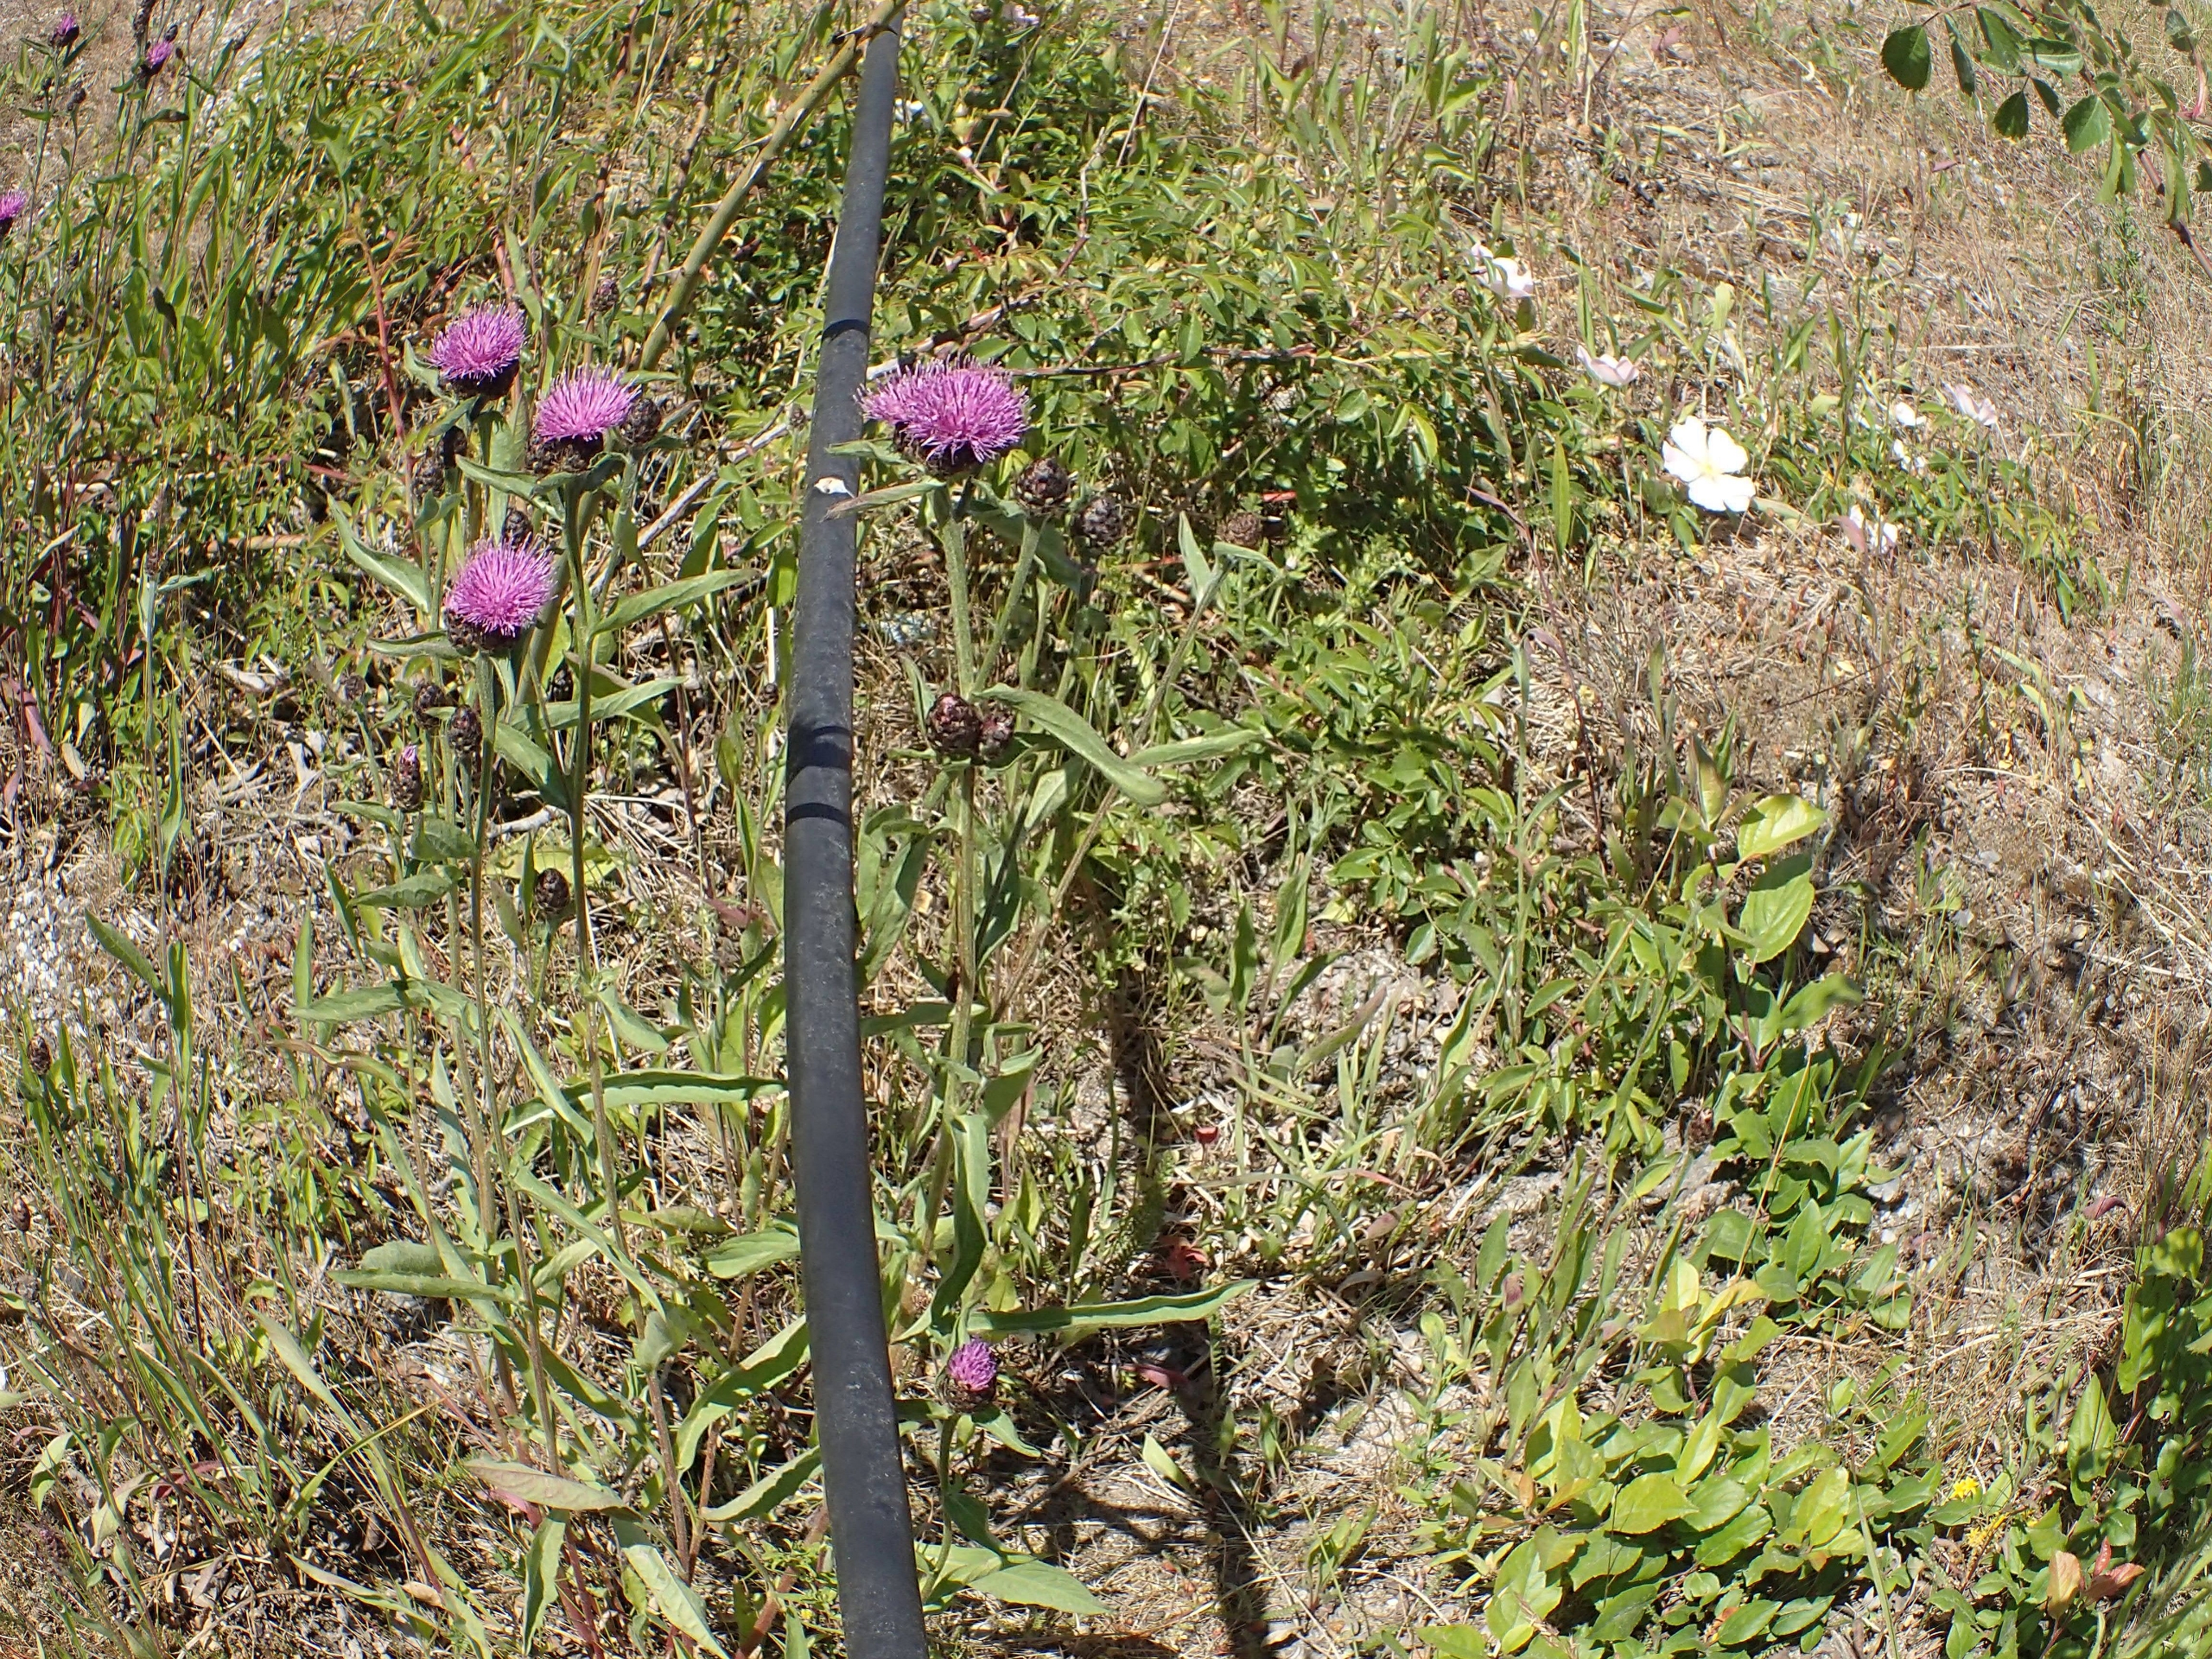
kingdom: Plantae
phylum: Tracheophyta
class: Magnoliopsida
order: Asterales
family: Asteraceae
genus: Centaurea
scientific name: Centaurea nigra
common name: Sorthoved-knopurt
